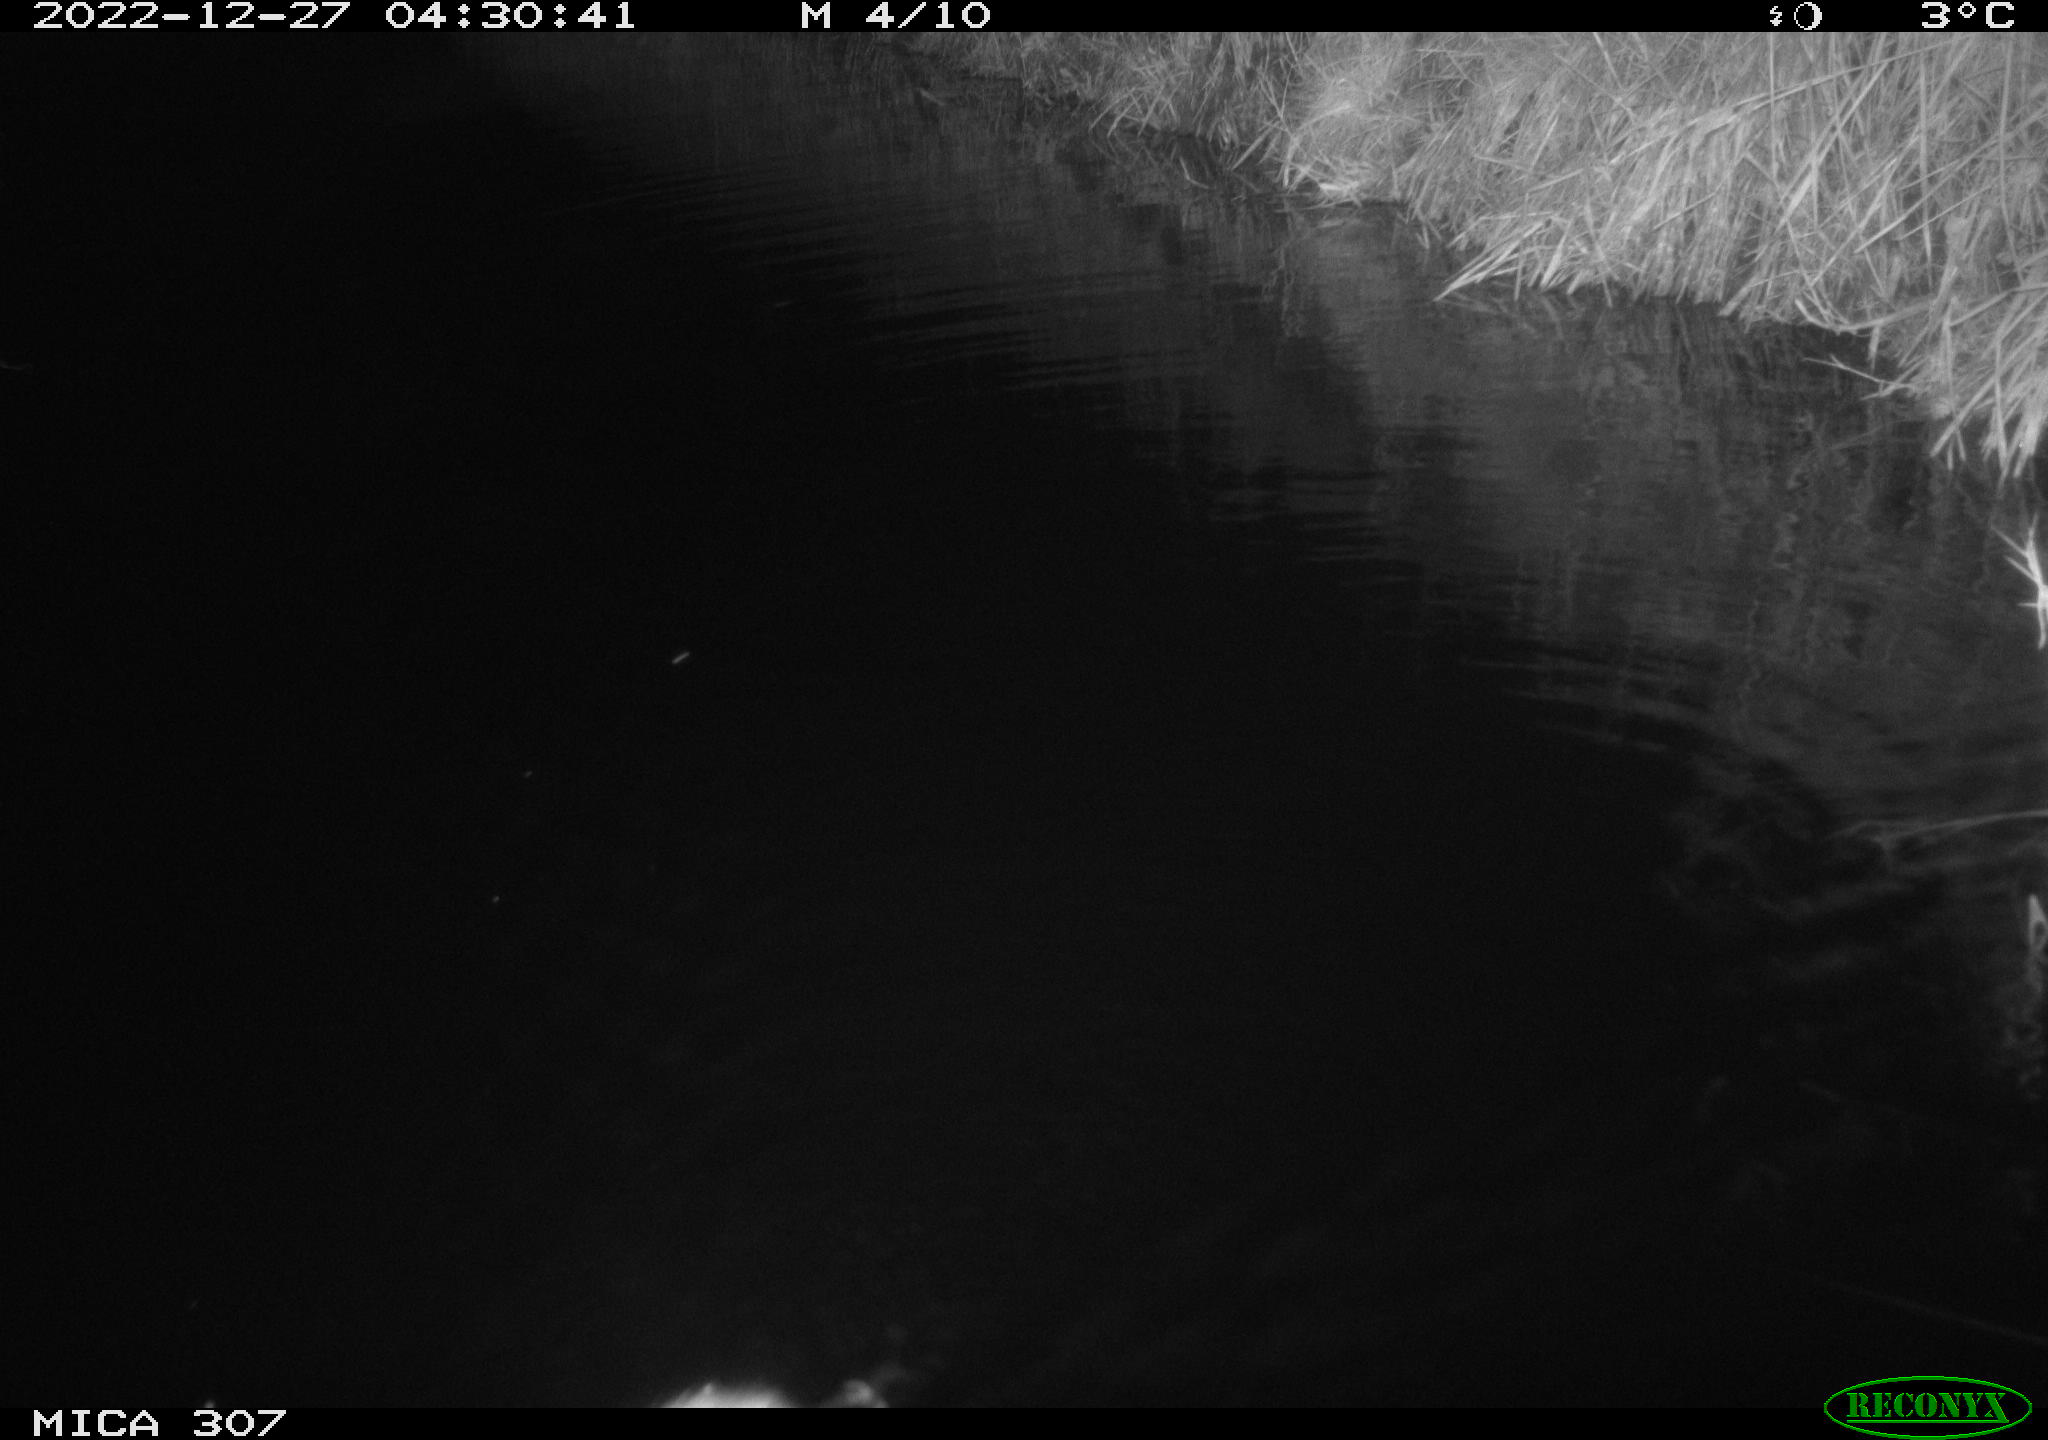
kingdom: Animalia
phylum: Chordata
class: Mammalia
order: Rodentia
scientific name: Rodentia
